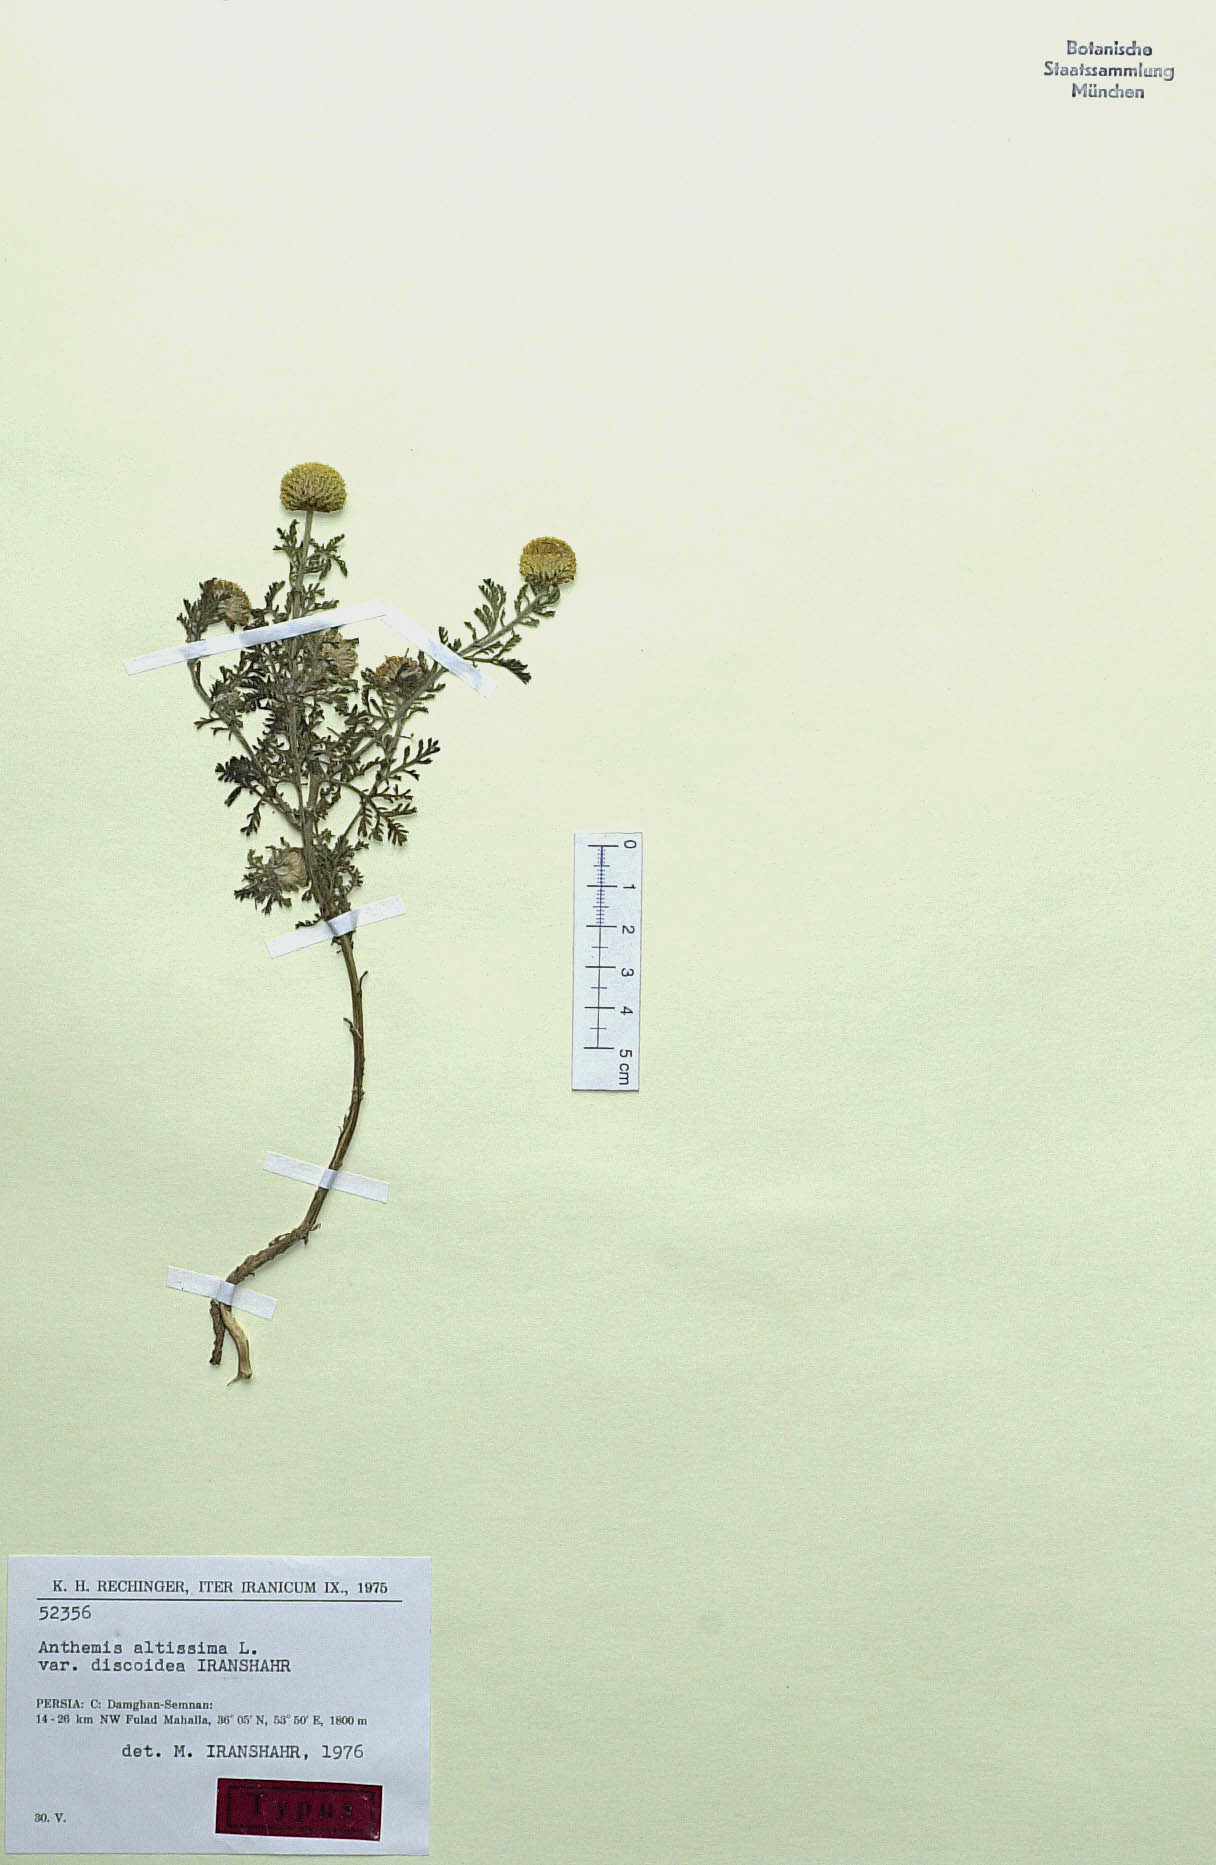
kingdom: Plantae
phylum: Tracheophyta
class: Magnoliopsida
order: Asterales
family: Asteraceae
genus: Cota
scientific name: Cota altissima
